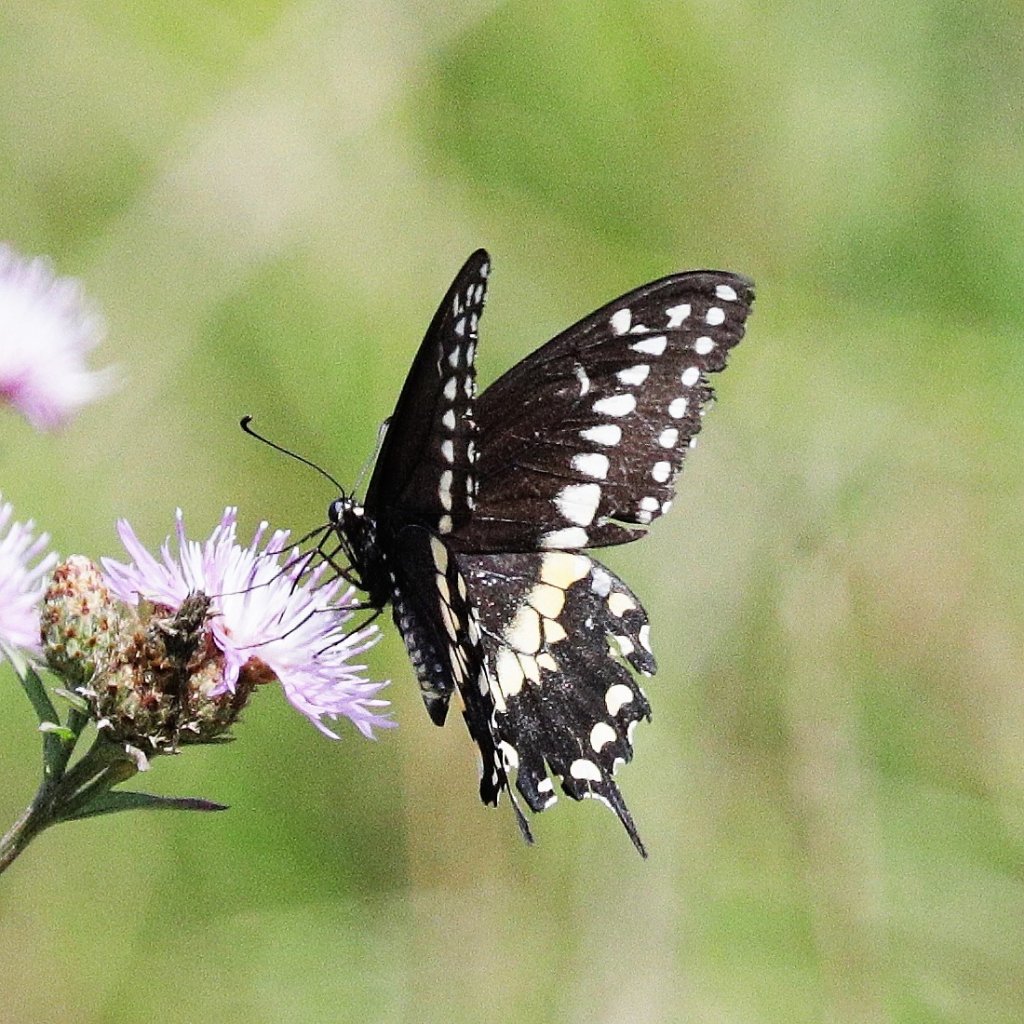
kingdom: Animalia
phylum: Arthropoda
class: Insecta
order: Lepidoptera
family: Papilionidae
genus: Papilio
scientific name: Papilio polyxenes
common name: Black Swallowtail
